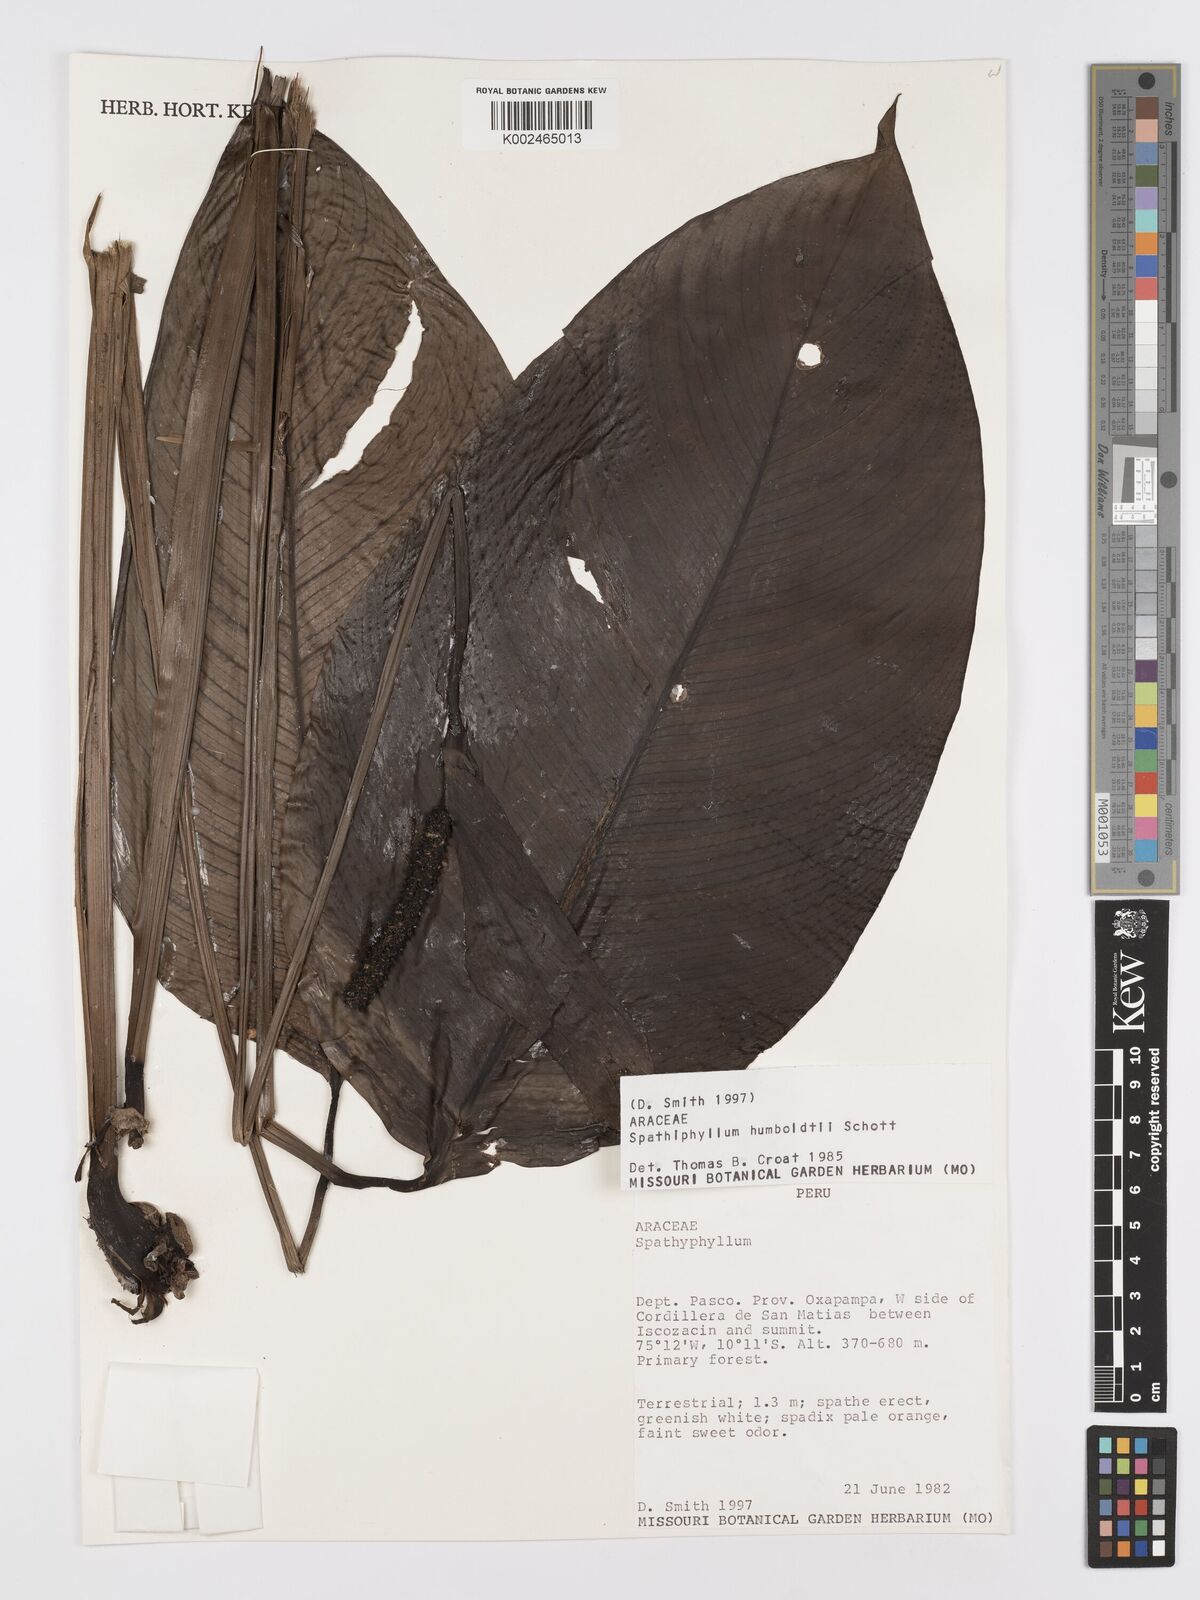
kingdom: Plantae
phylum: Tracheophyta
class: Liliopsida
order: Alismatales
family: Araceae
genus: Spathiphyllum
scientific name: Spathiphyllum humboldtii
